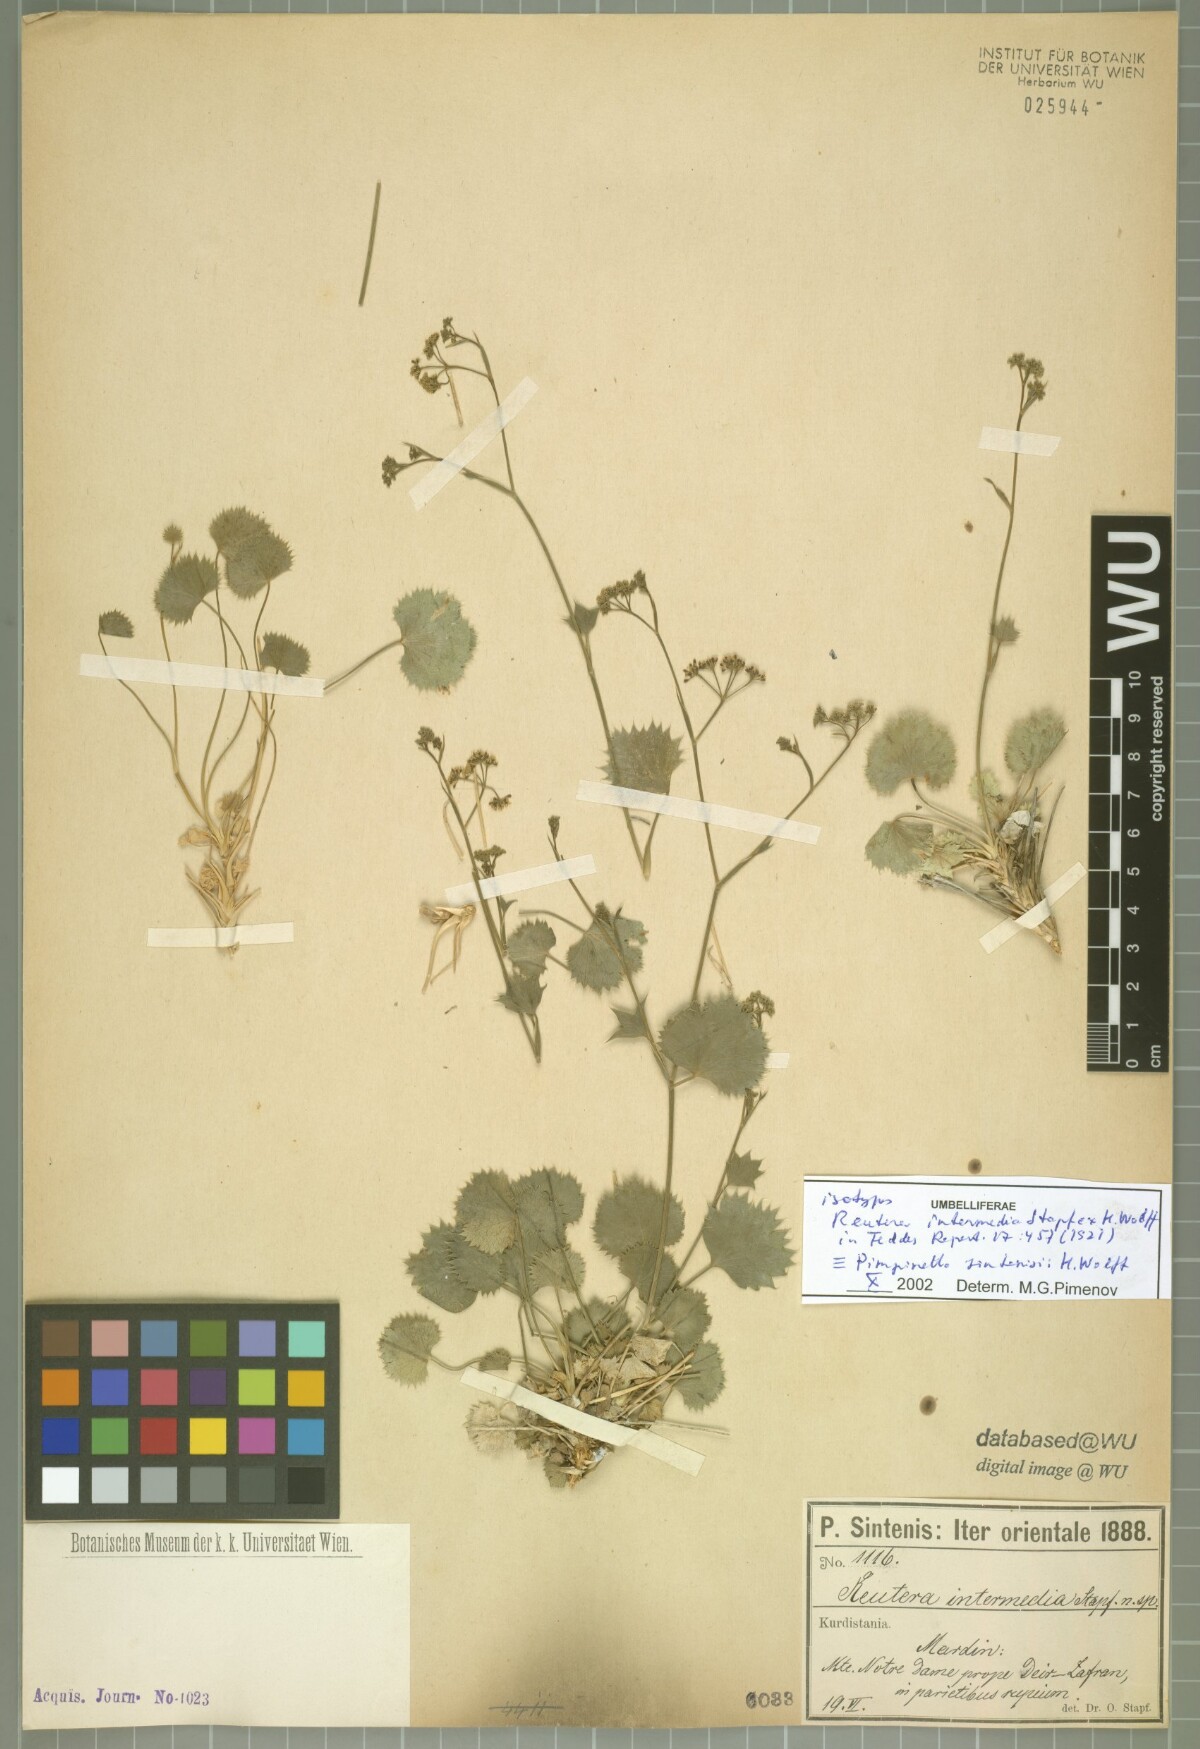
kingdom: Plantae
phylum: Tracheophyta
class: Magnoliopsida
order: Apiales
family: Apiaceae
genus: Pimpinella
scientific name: Pimpinella sintenisii
